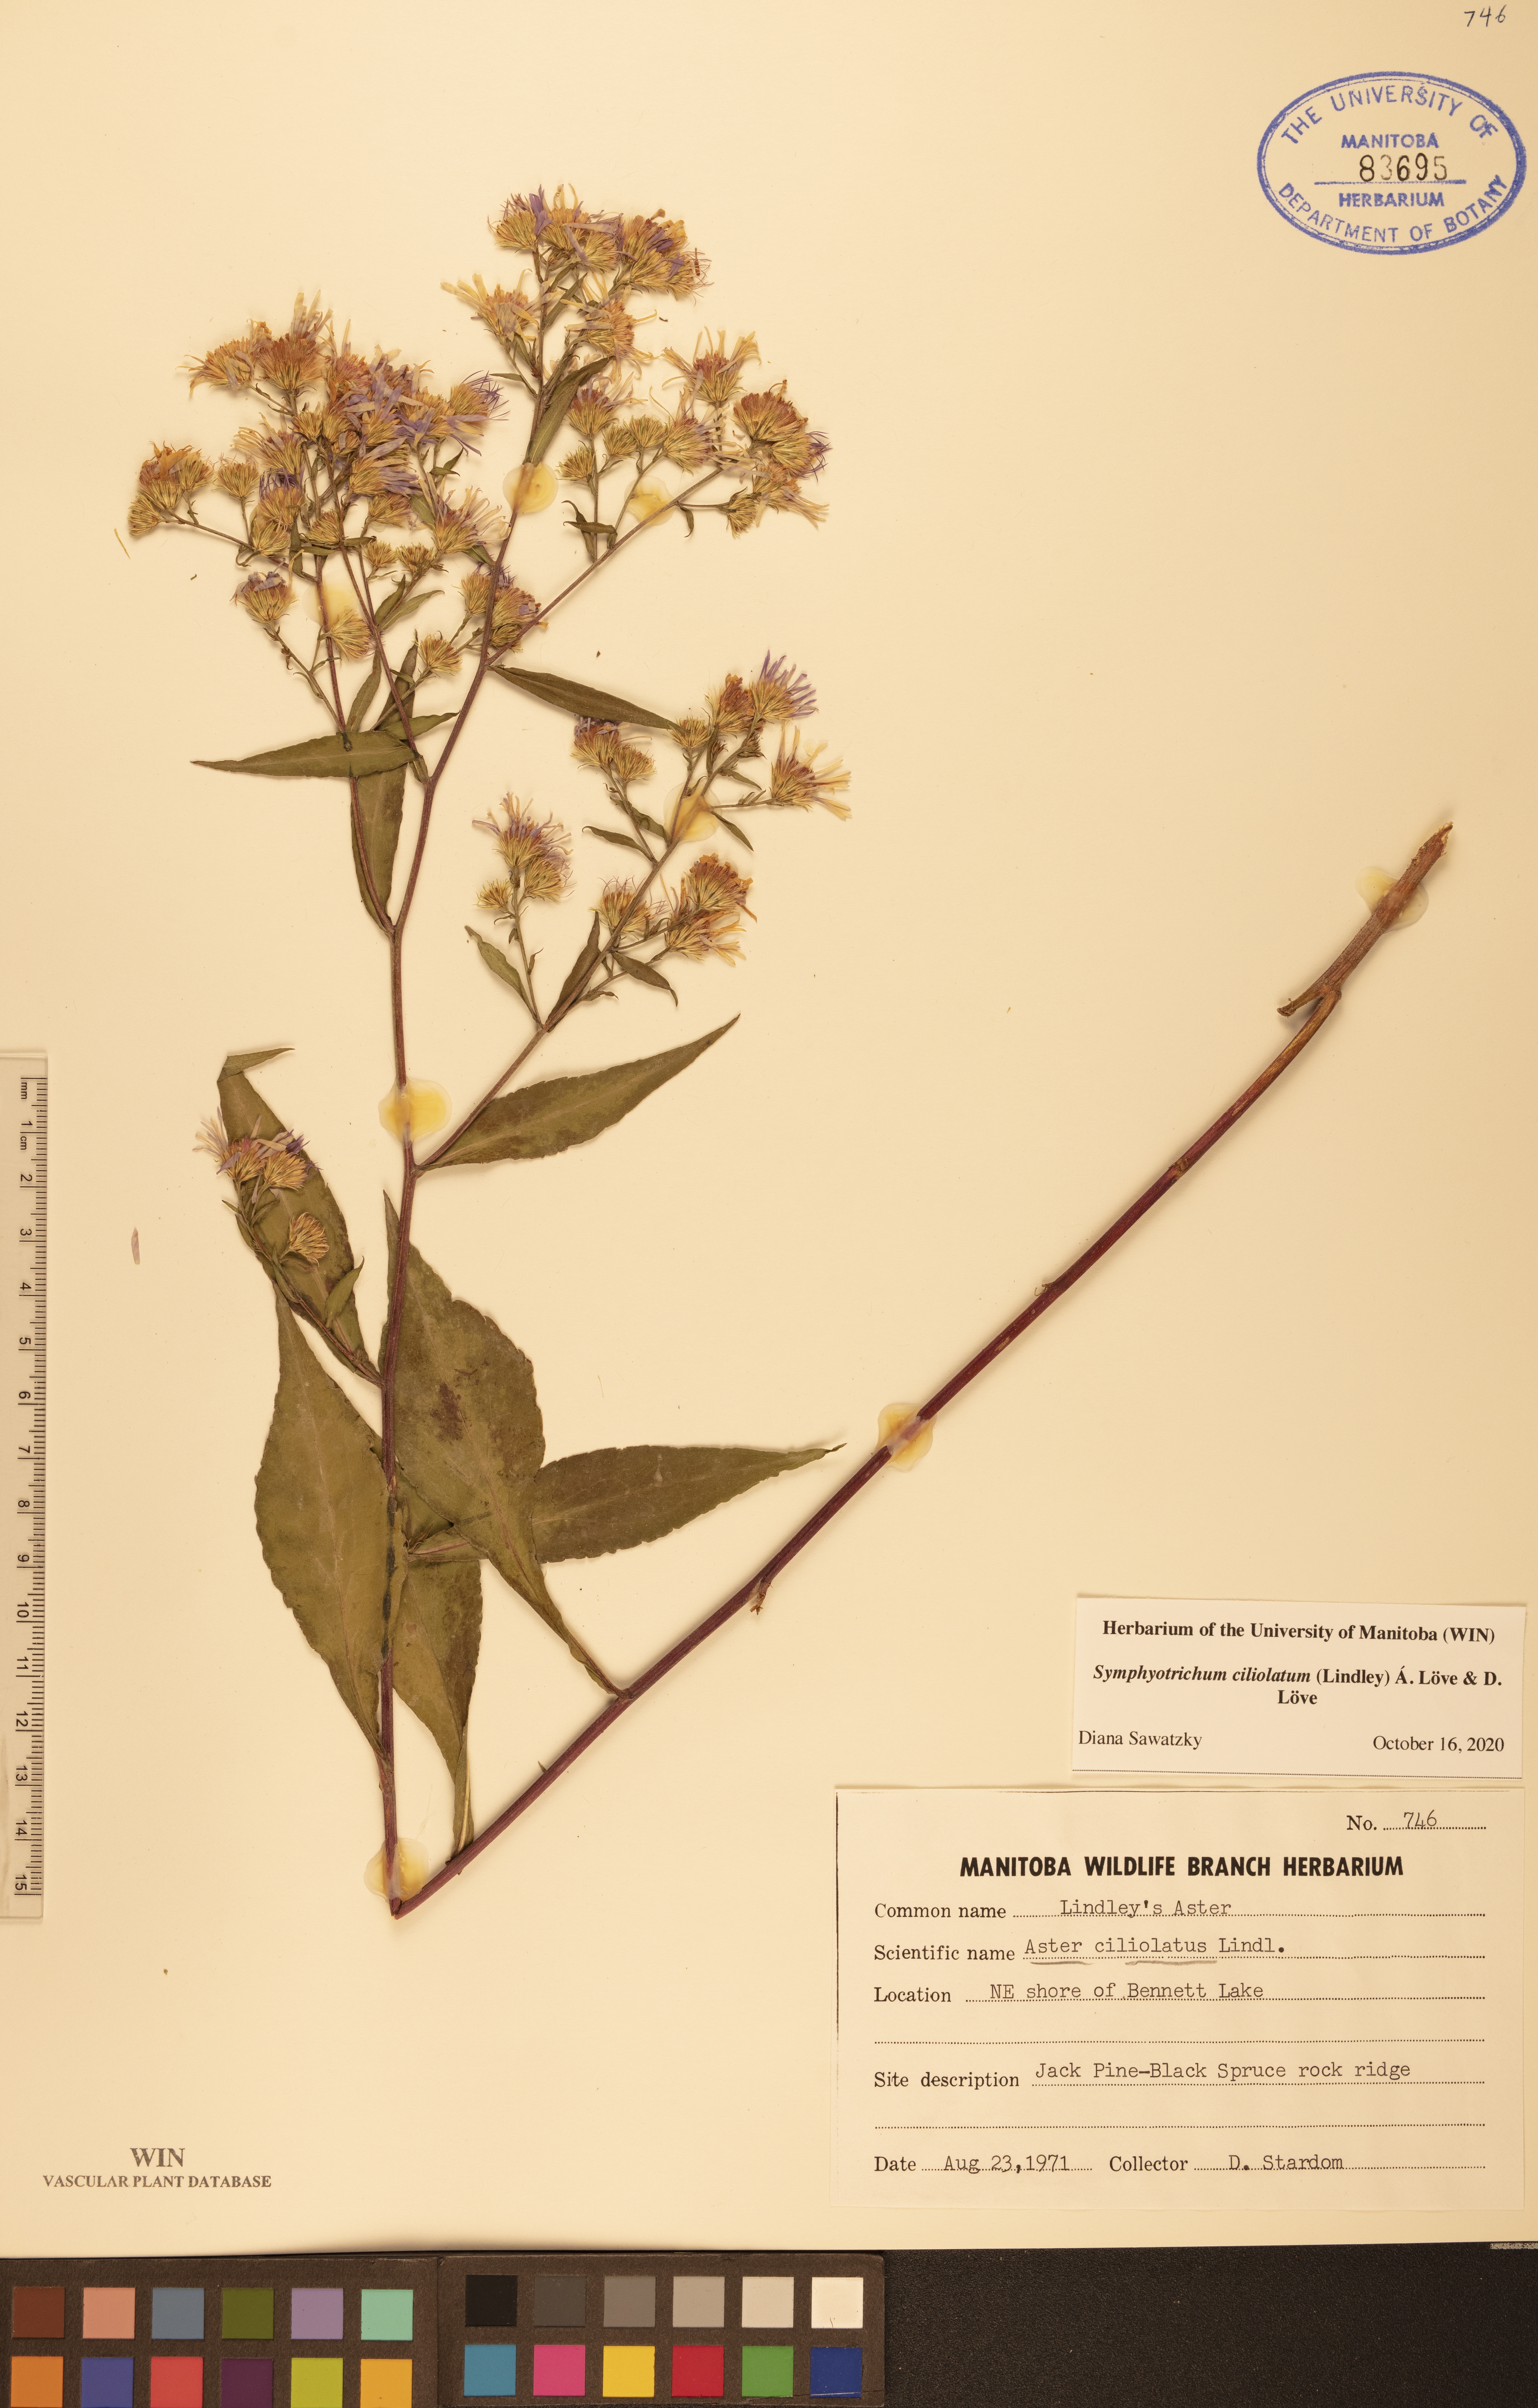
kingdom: Plantae
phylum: Tracheophyta
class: Magnoliopsida
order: Asterales
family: Asteraceae
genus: Symphyotrichum
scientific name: Symphyotrichum ciliolatum
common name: Fringed blue aster
